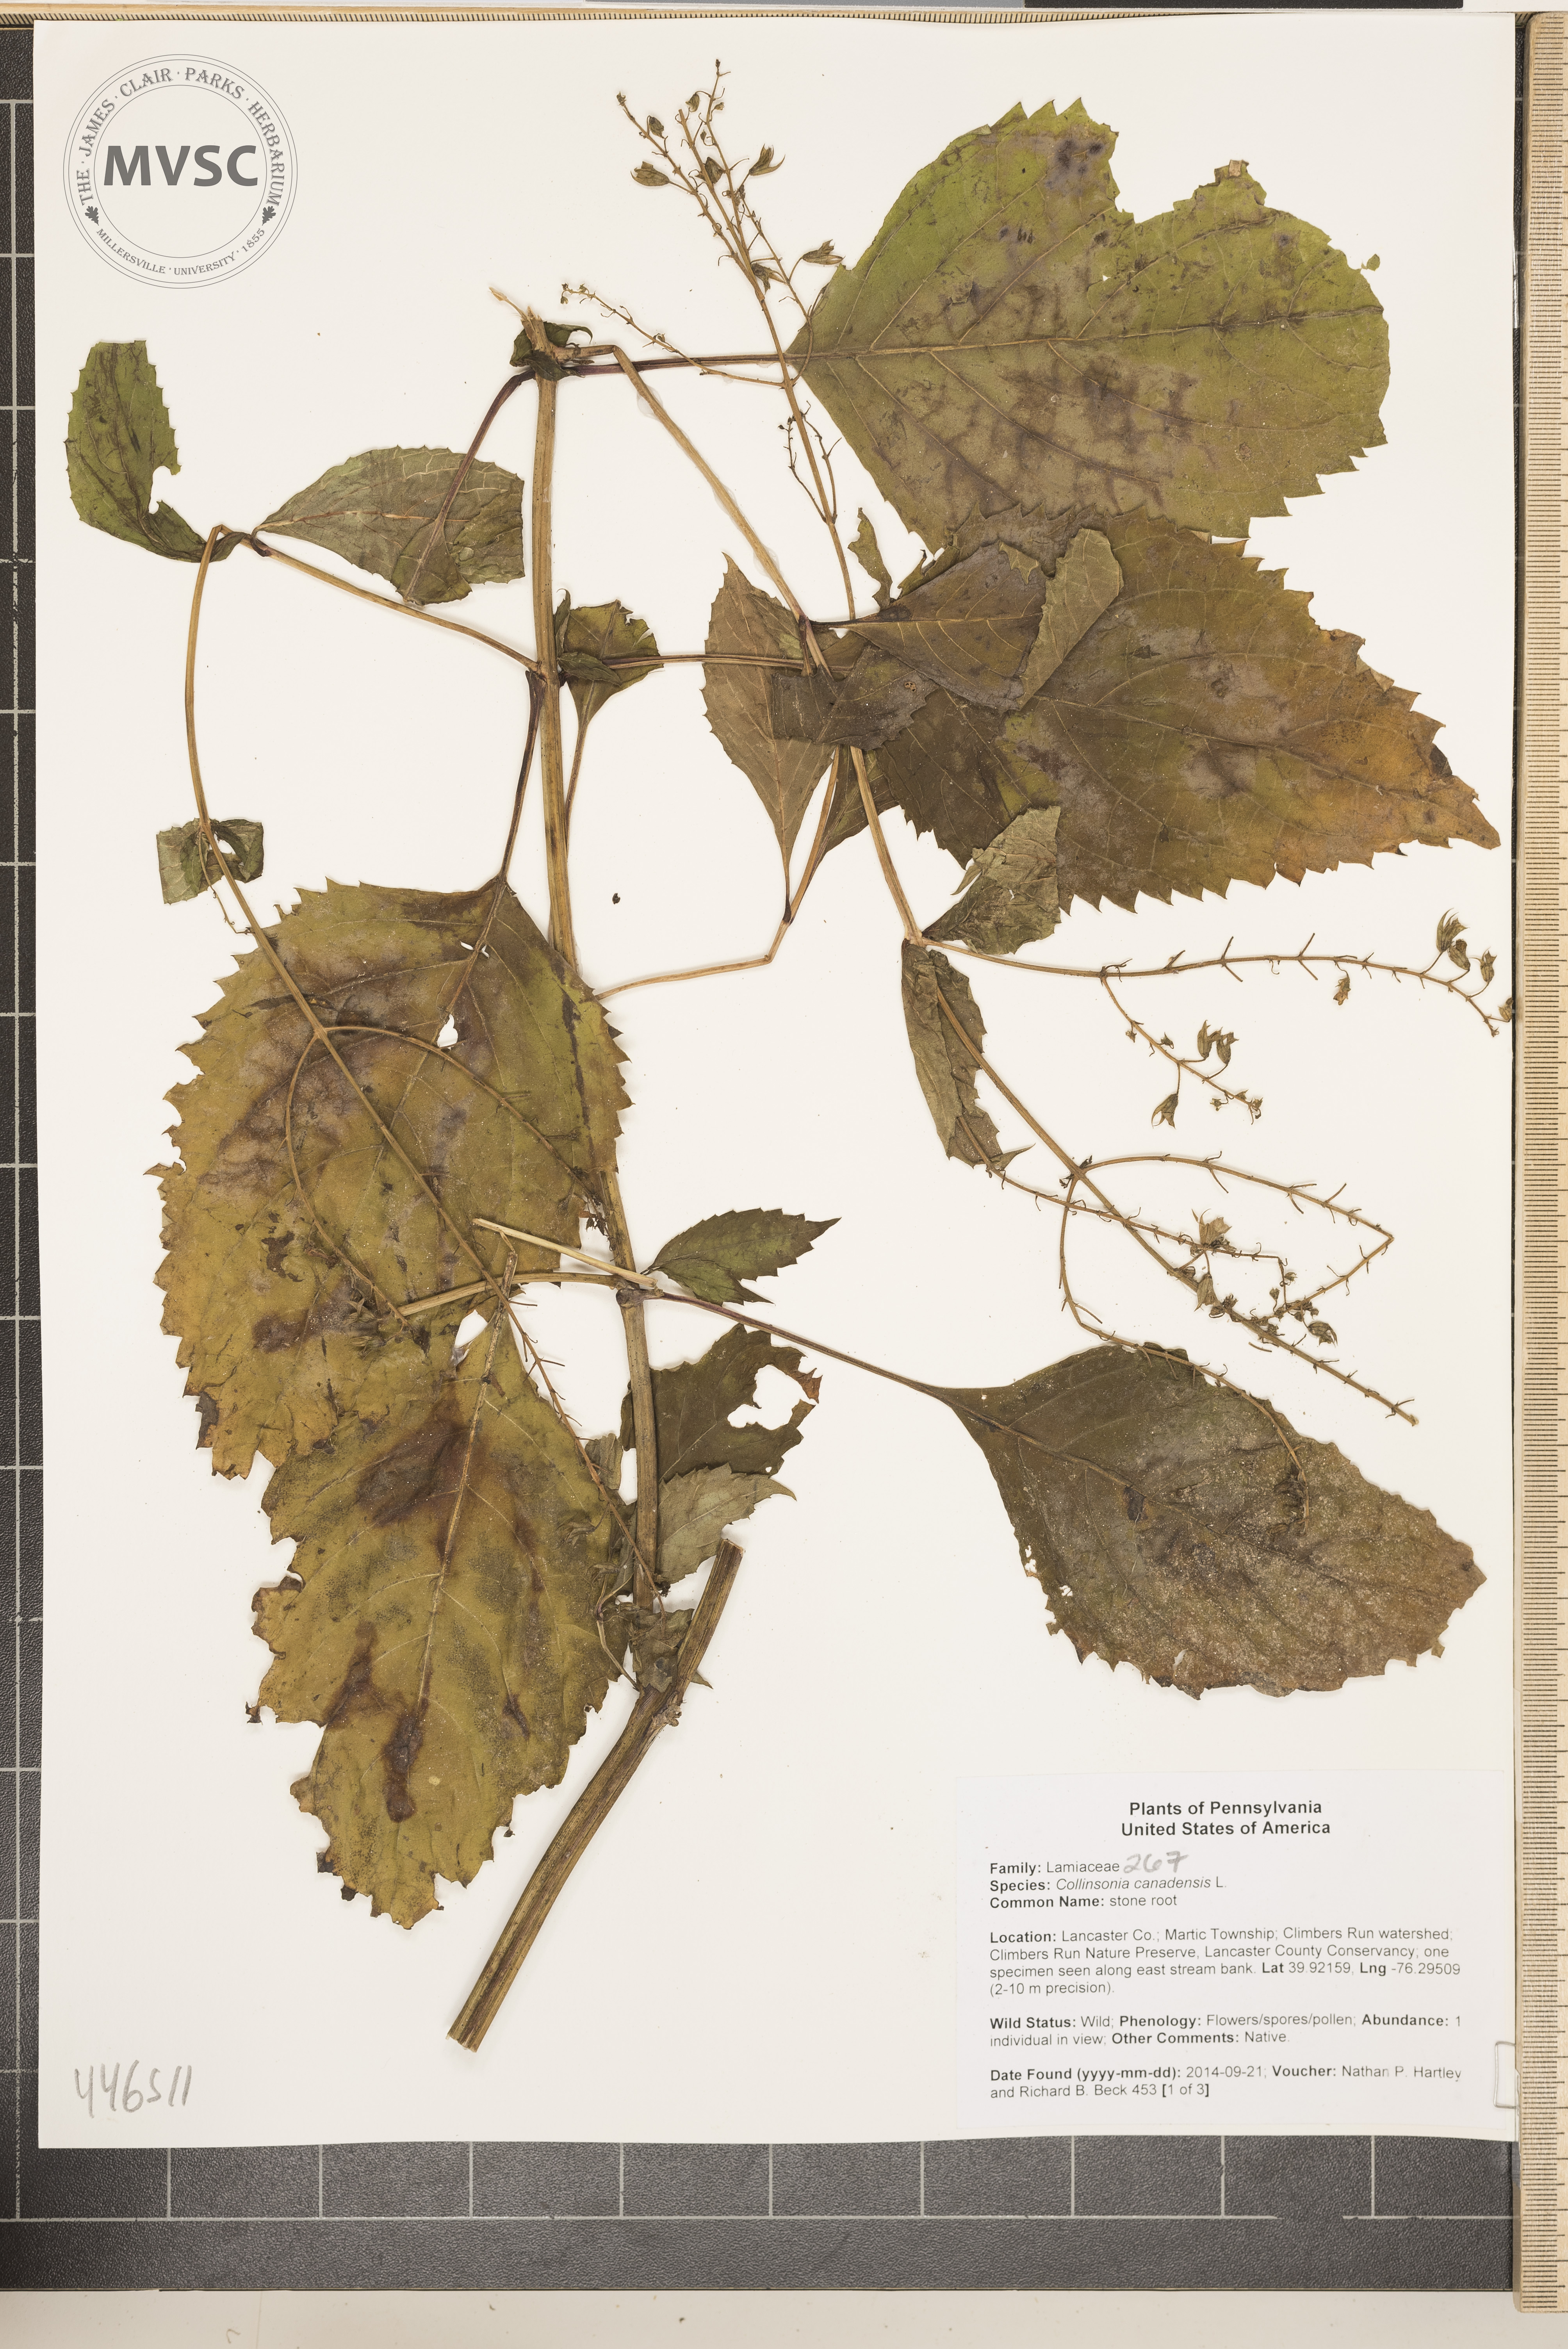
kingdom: Plantae
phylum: Tracheophyta
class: Magnoliopsida
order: Lamiales
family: Lamiaceae
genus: Collinsonia
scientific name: Collinsonia canadensis
